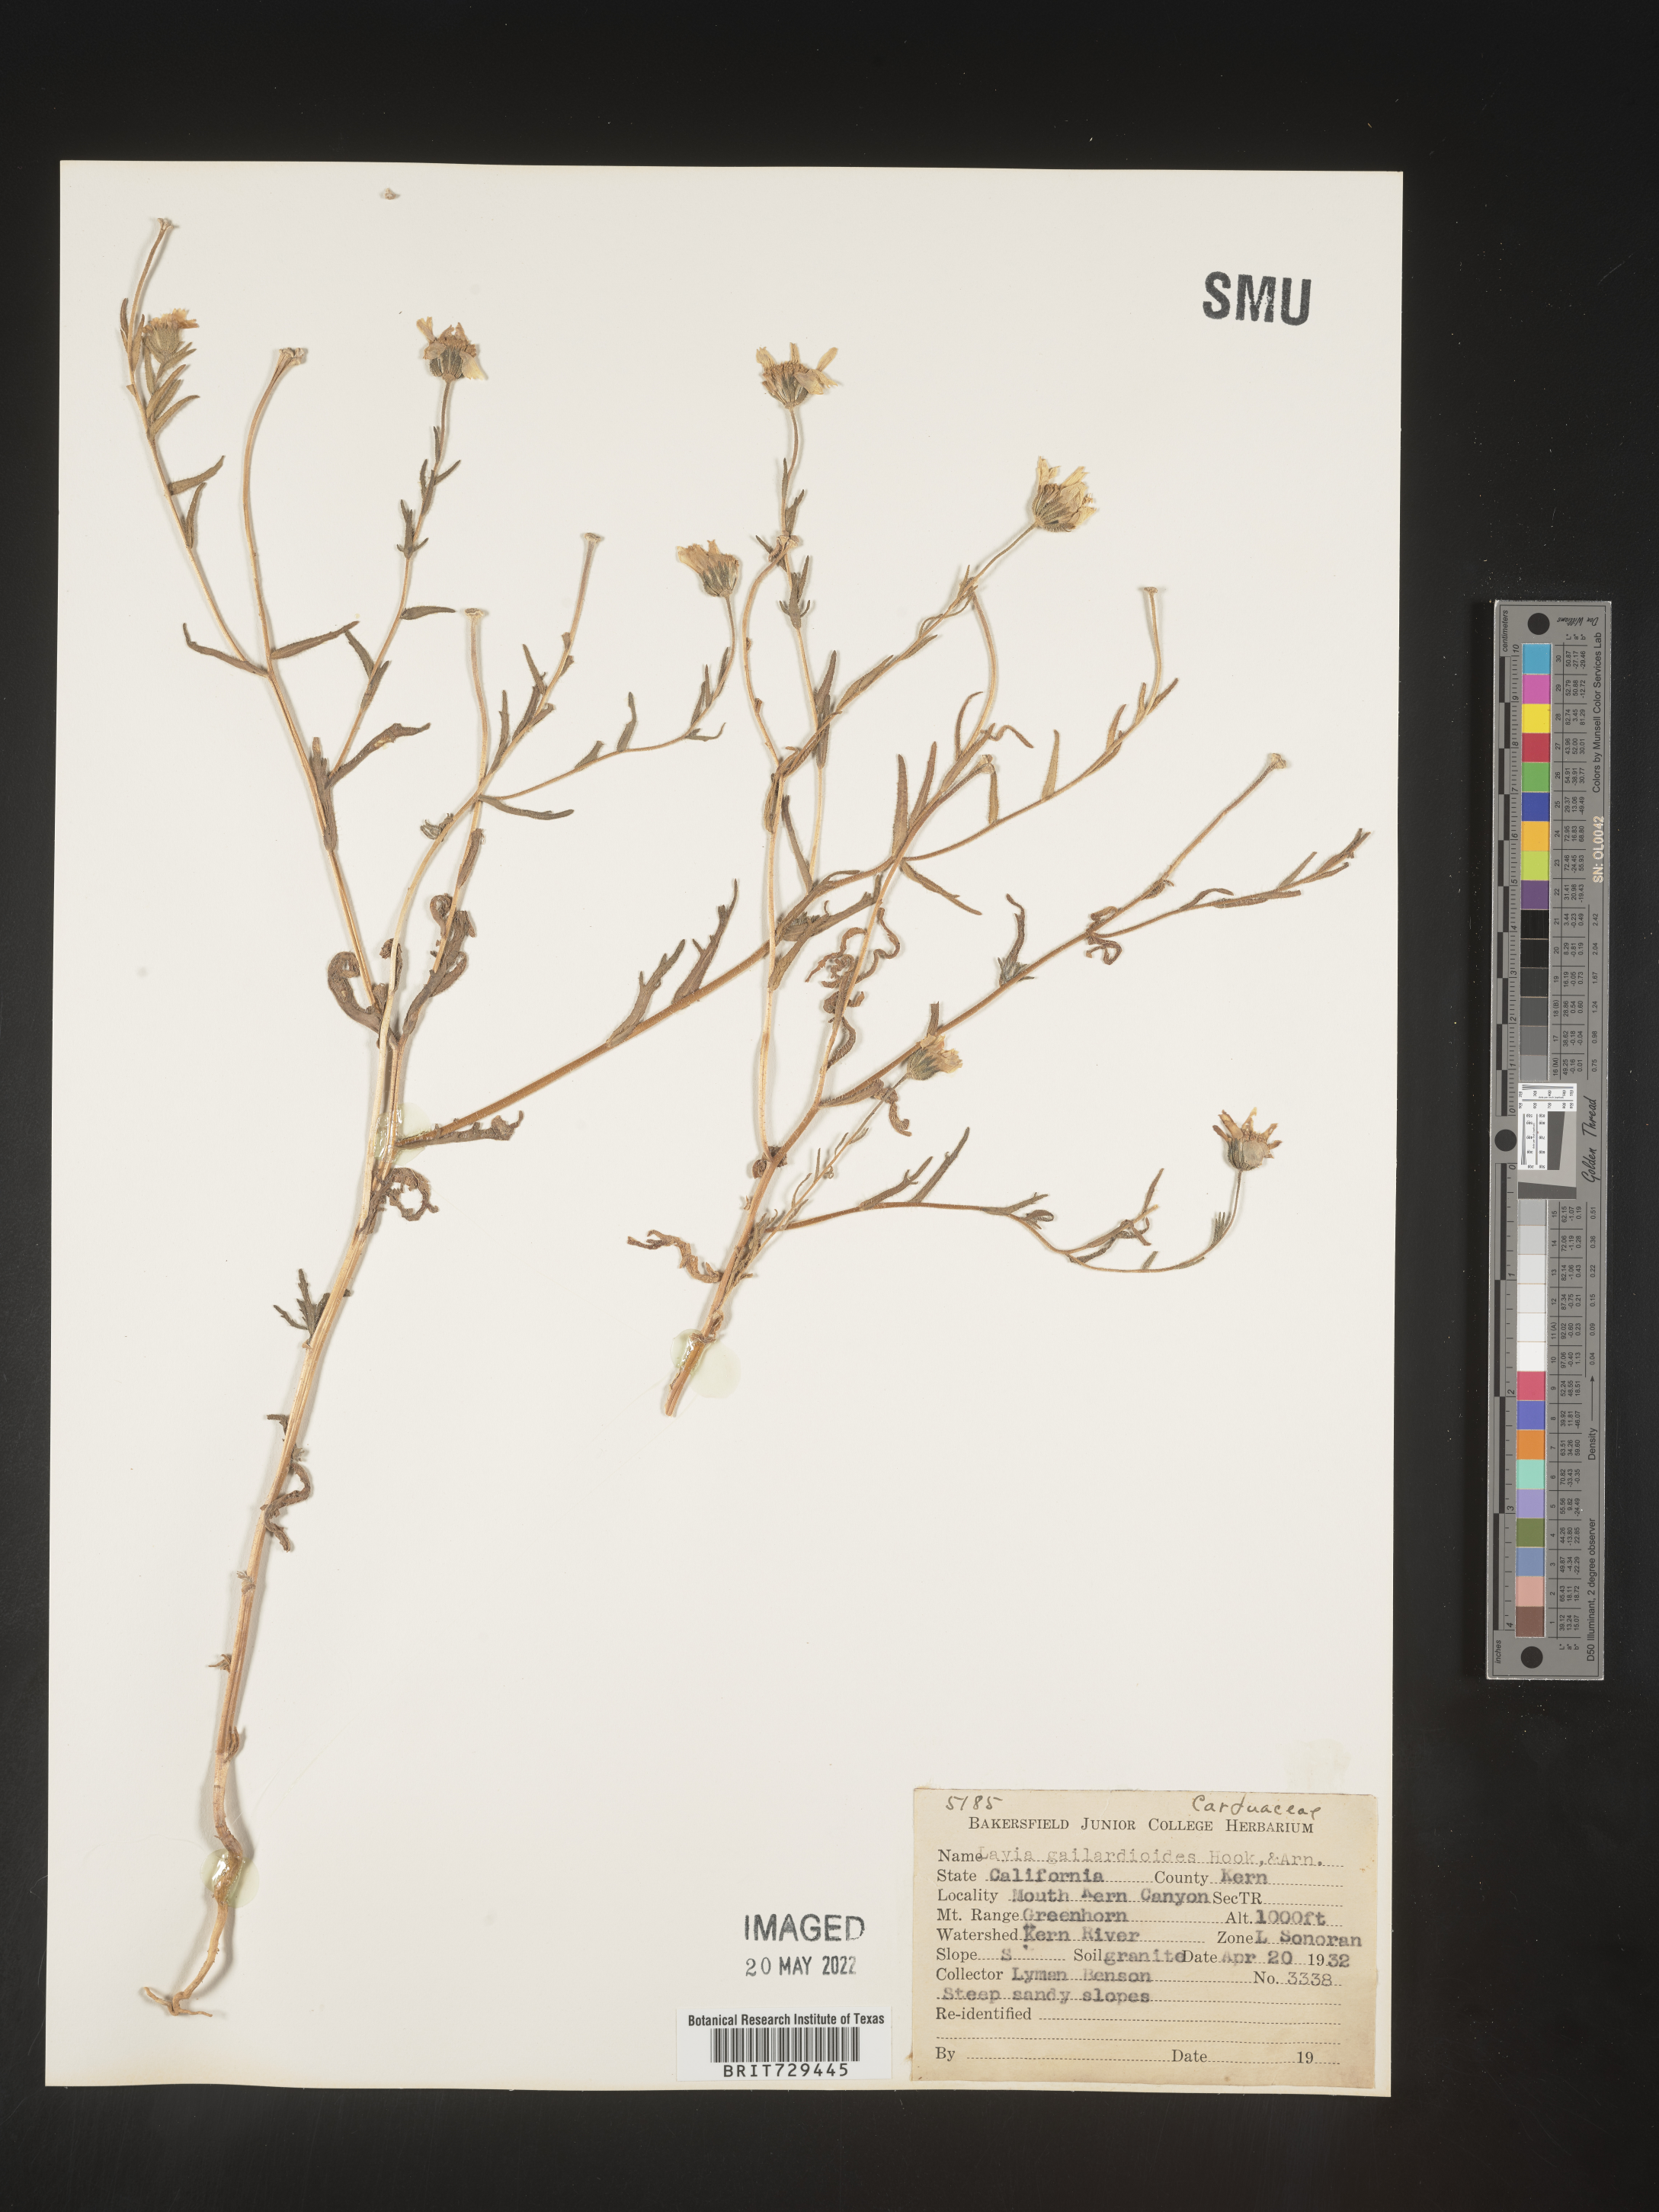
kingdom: Plantae
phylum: Tracheophyta
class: Magnoliopsida
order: Asterales
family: Asteraceae
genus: Layia
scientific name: Layia
